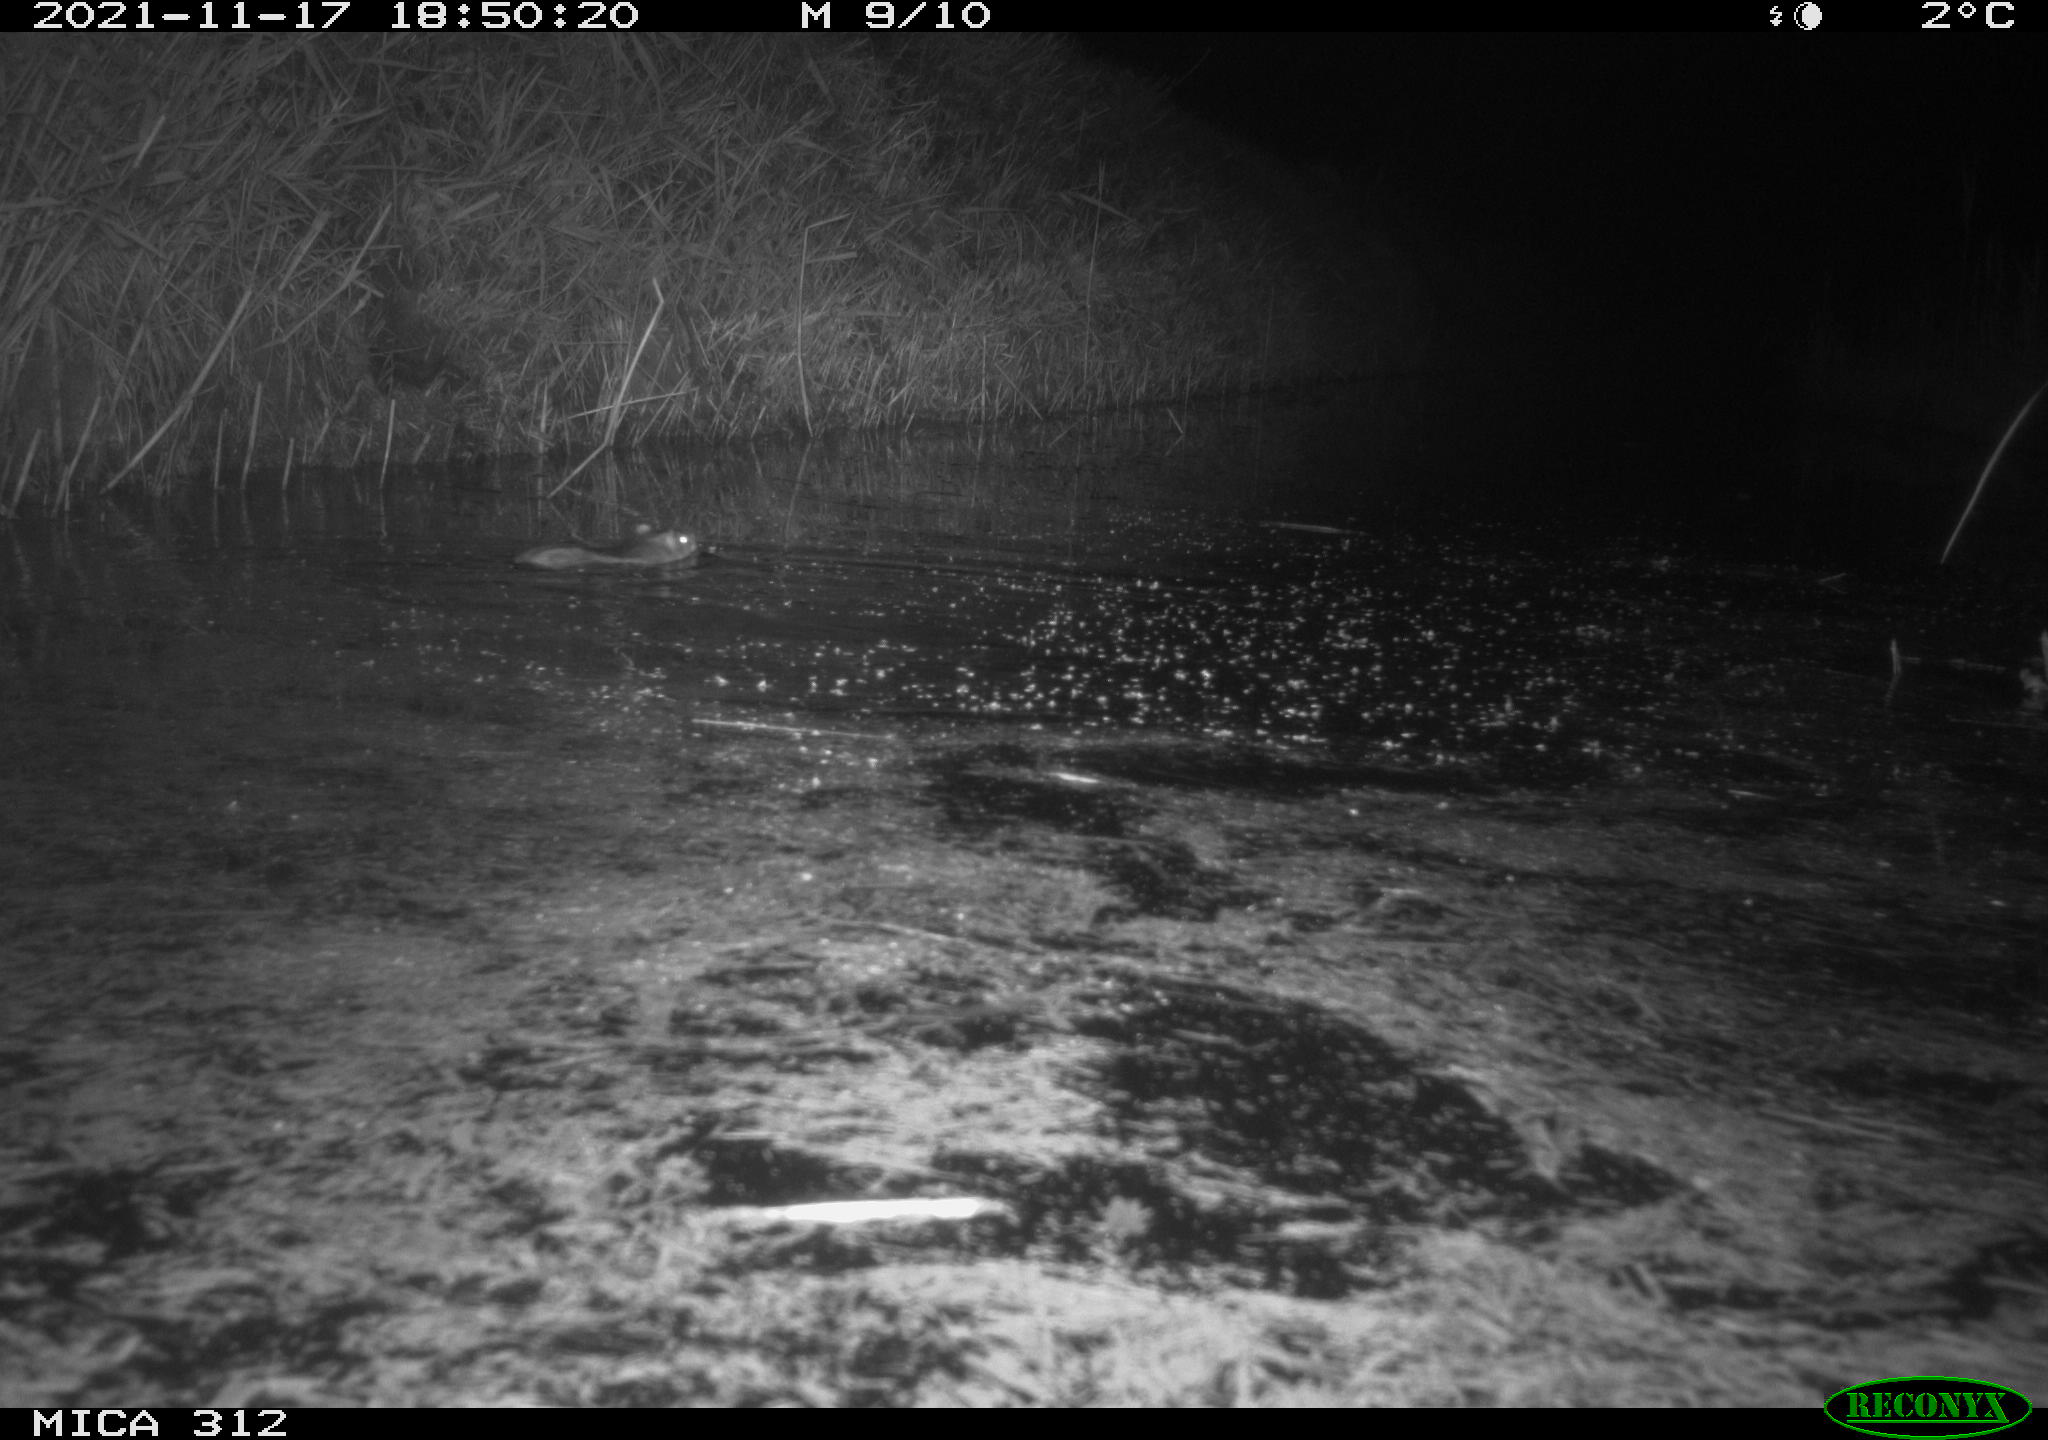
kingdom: Animalia
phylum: Chordata
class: Mammalia
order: Rodentia
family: Muridae
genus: Rattus
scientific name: Rattus norvegicus
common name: Brown rat
